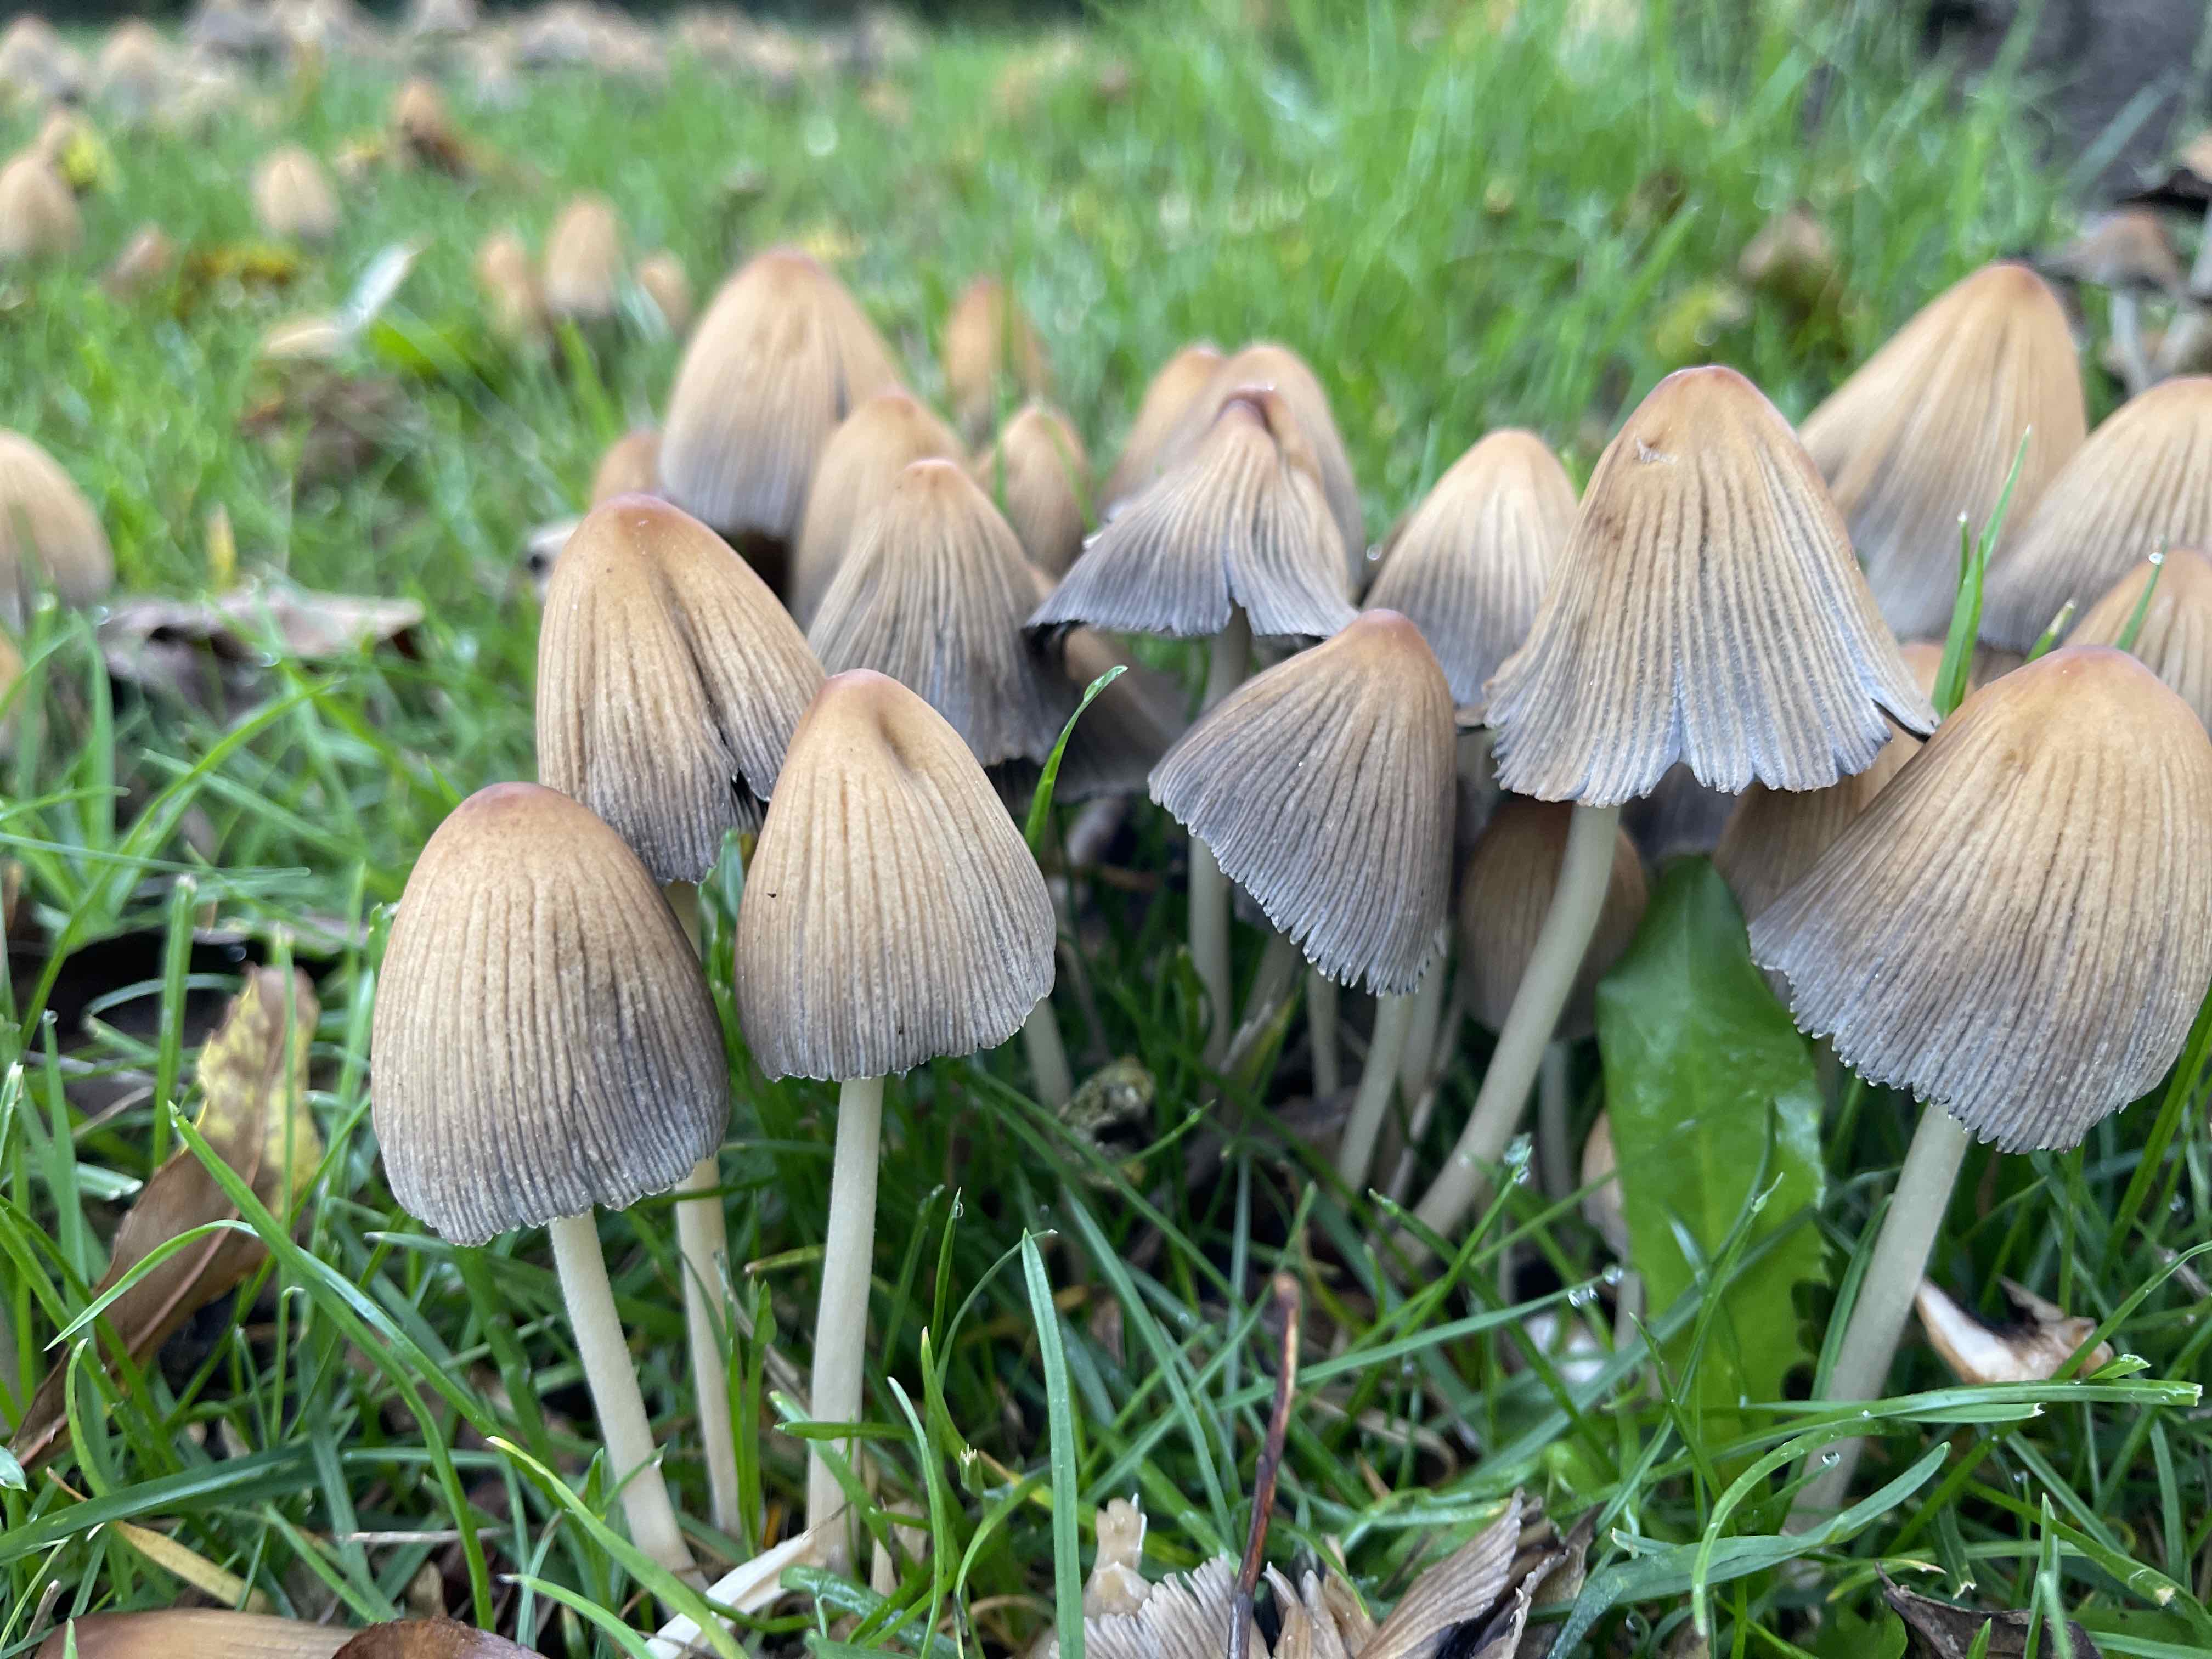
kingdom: Fungi
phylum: Basidiomycota
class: Agaricomycetes
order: Agaricales
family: Psathyrellaceae
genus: Coprinellus
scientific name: Coprinellus micaceus
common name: glimmer-blækhat
